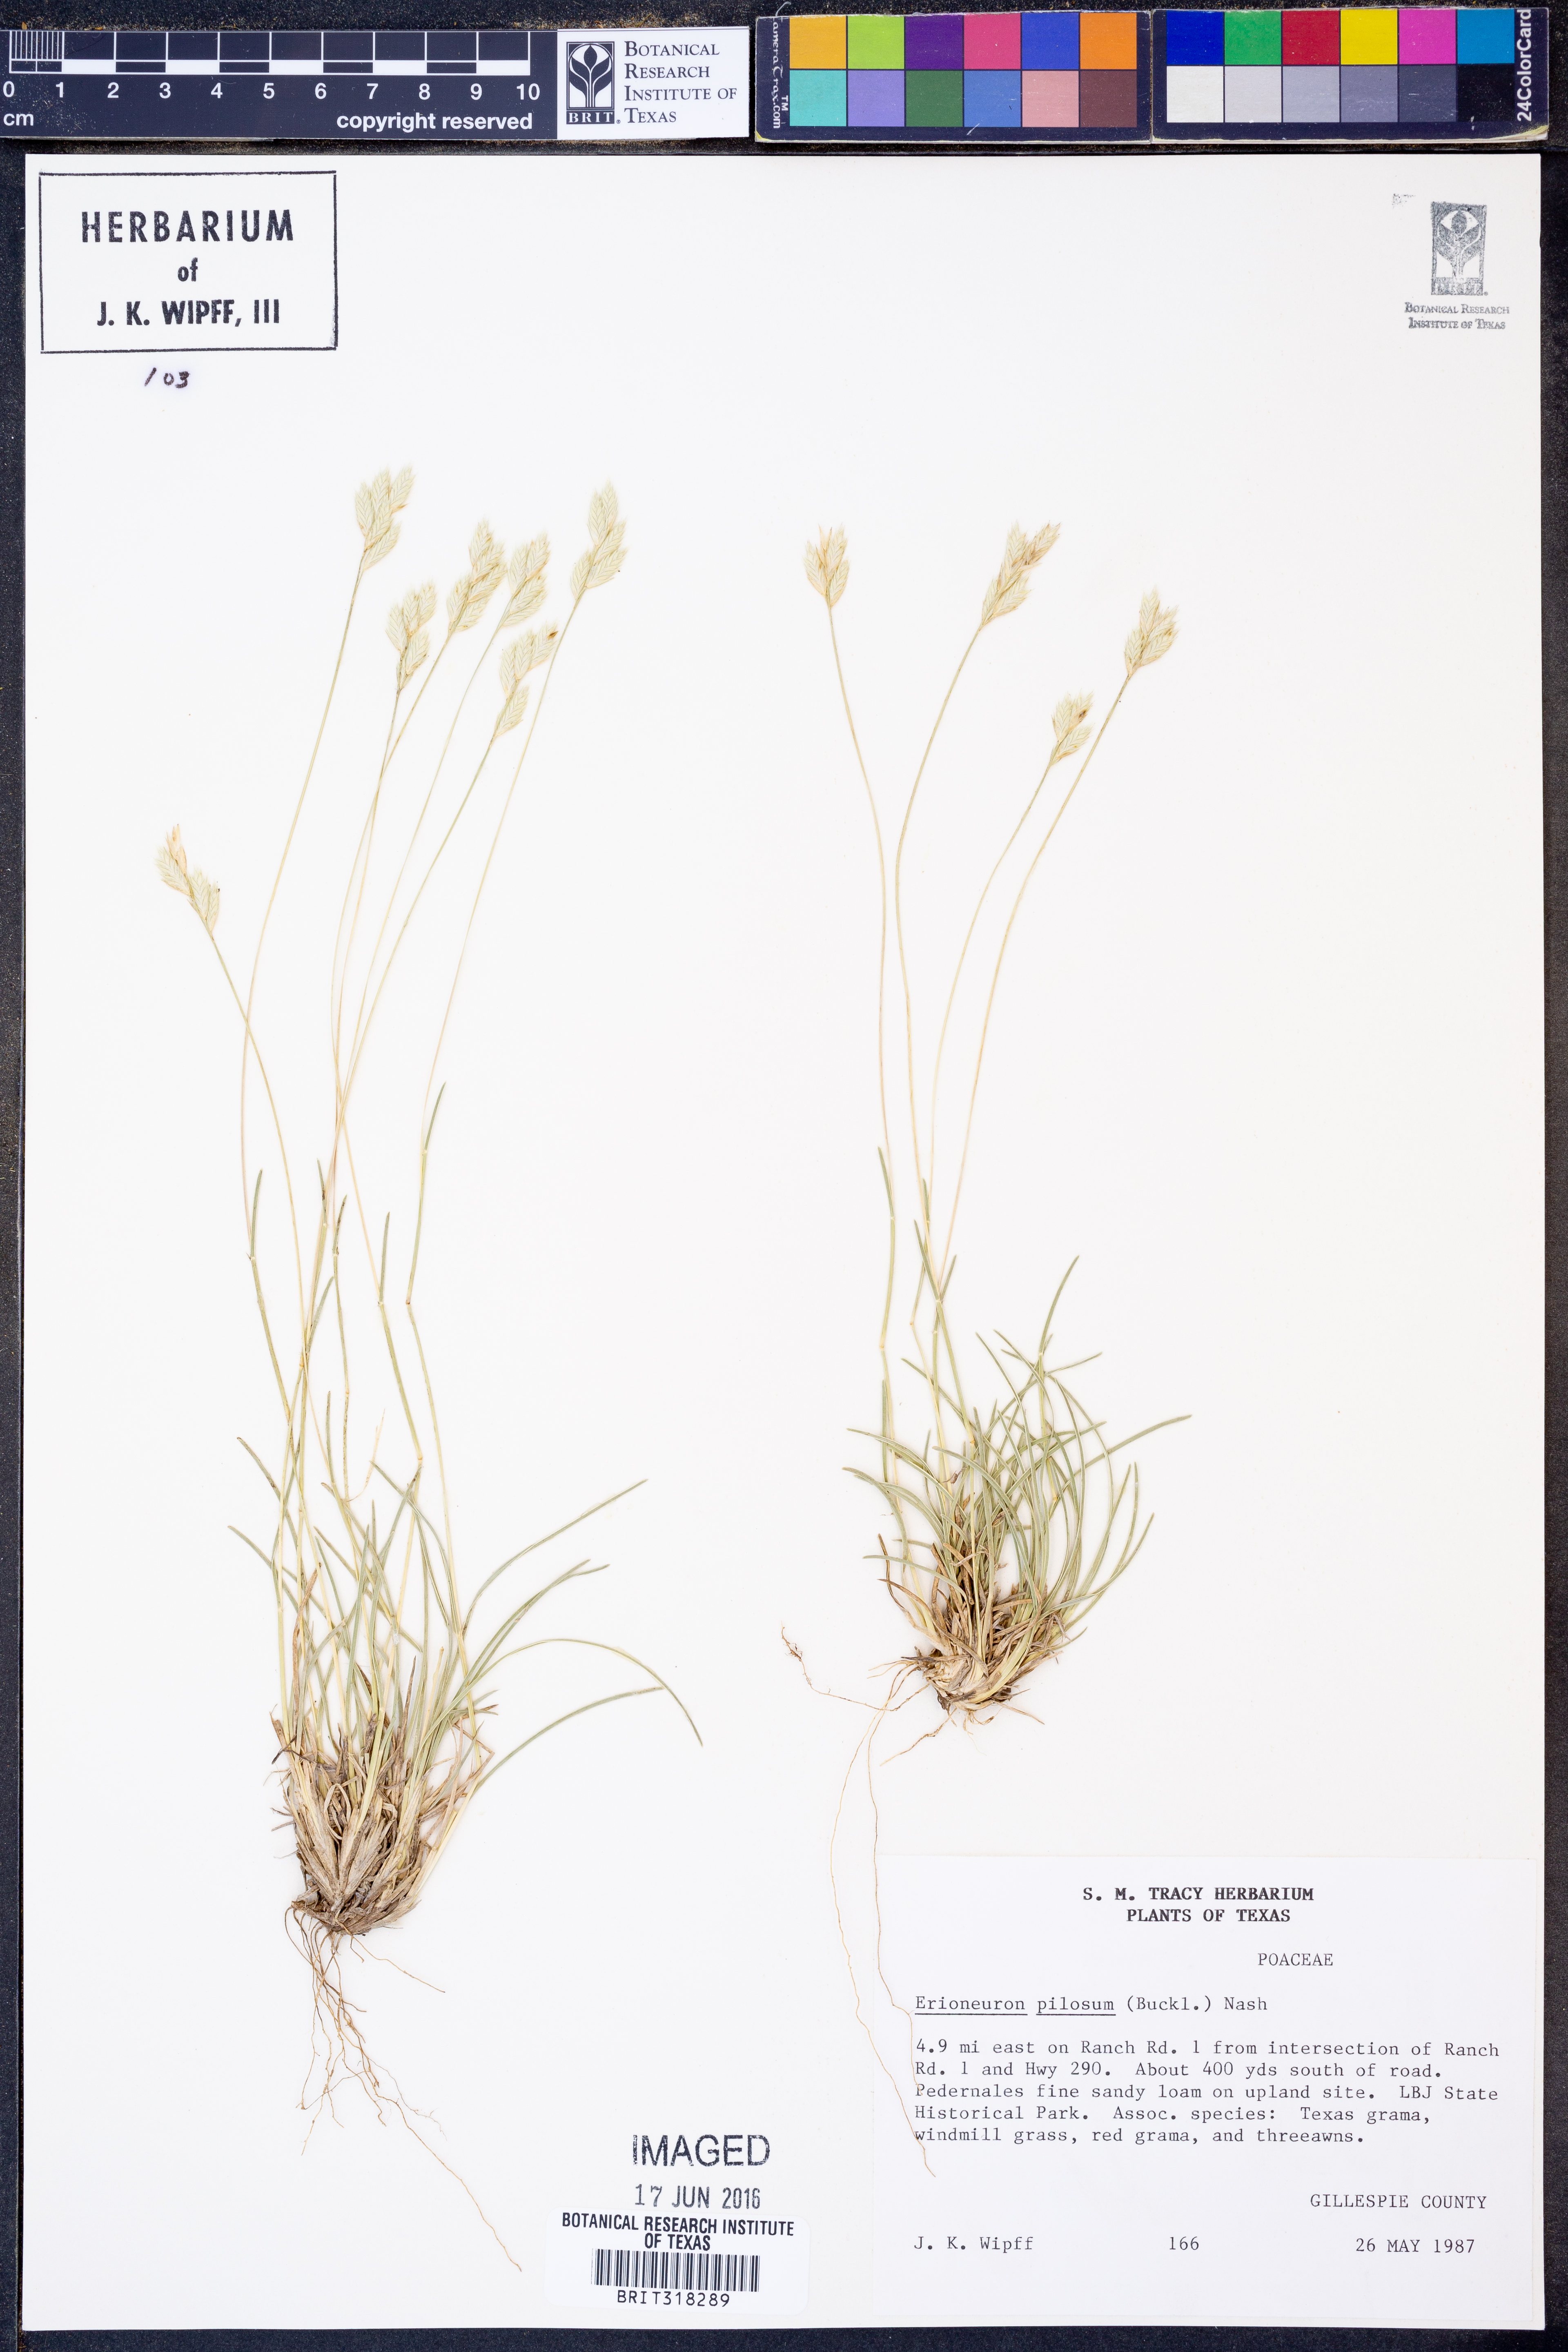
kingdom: Plantae
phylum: Tracheophyta
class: Liliopsida
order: Poales
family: Poaceae
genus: Erioneuron
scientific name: Erioneuron pilosum
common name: Hairy woolly grass
